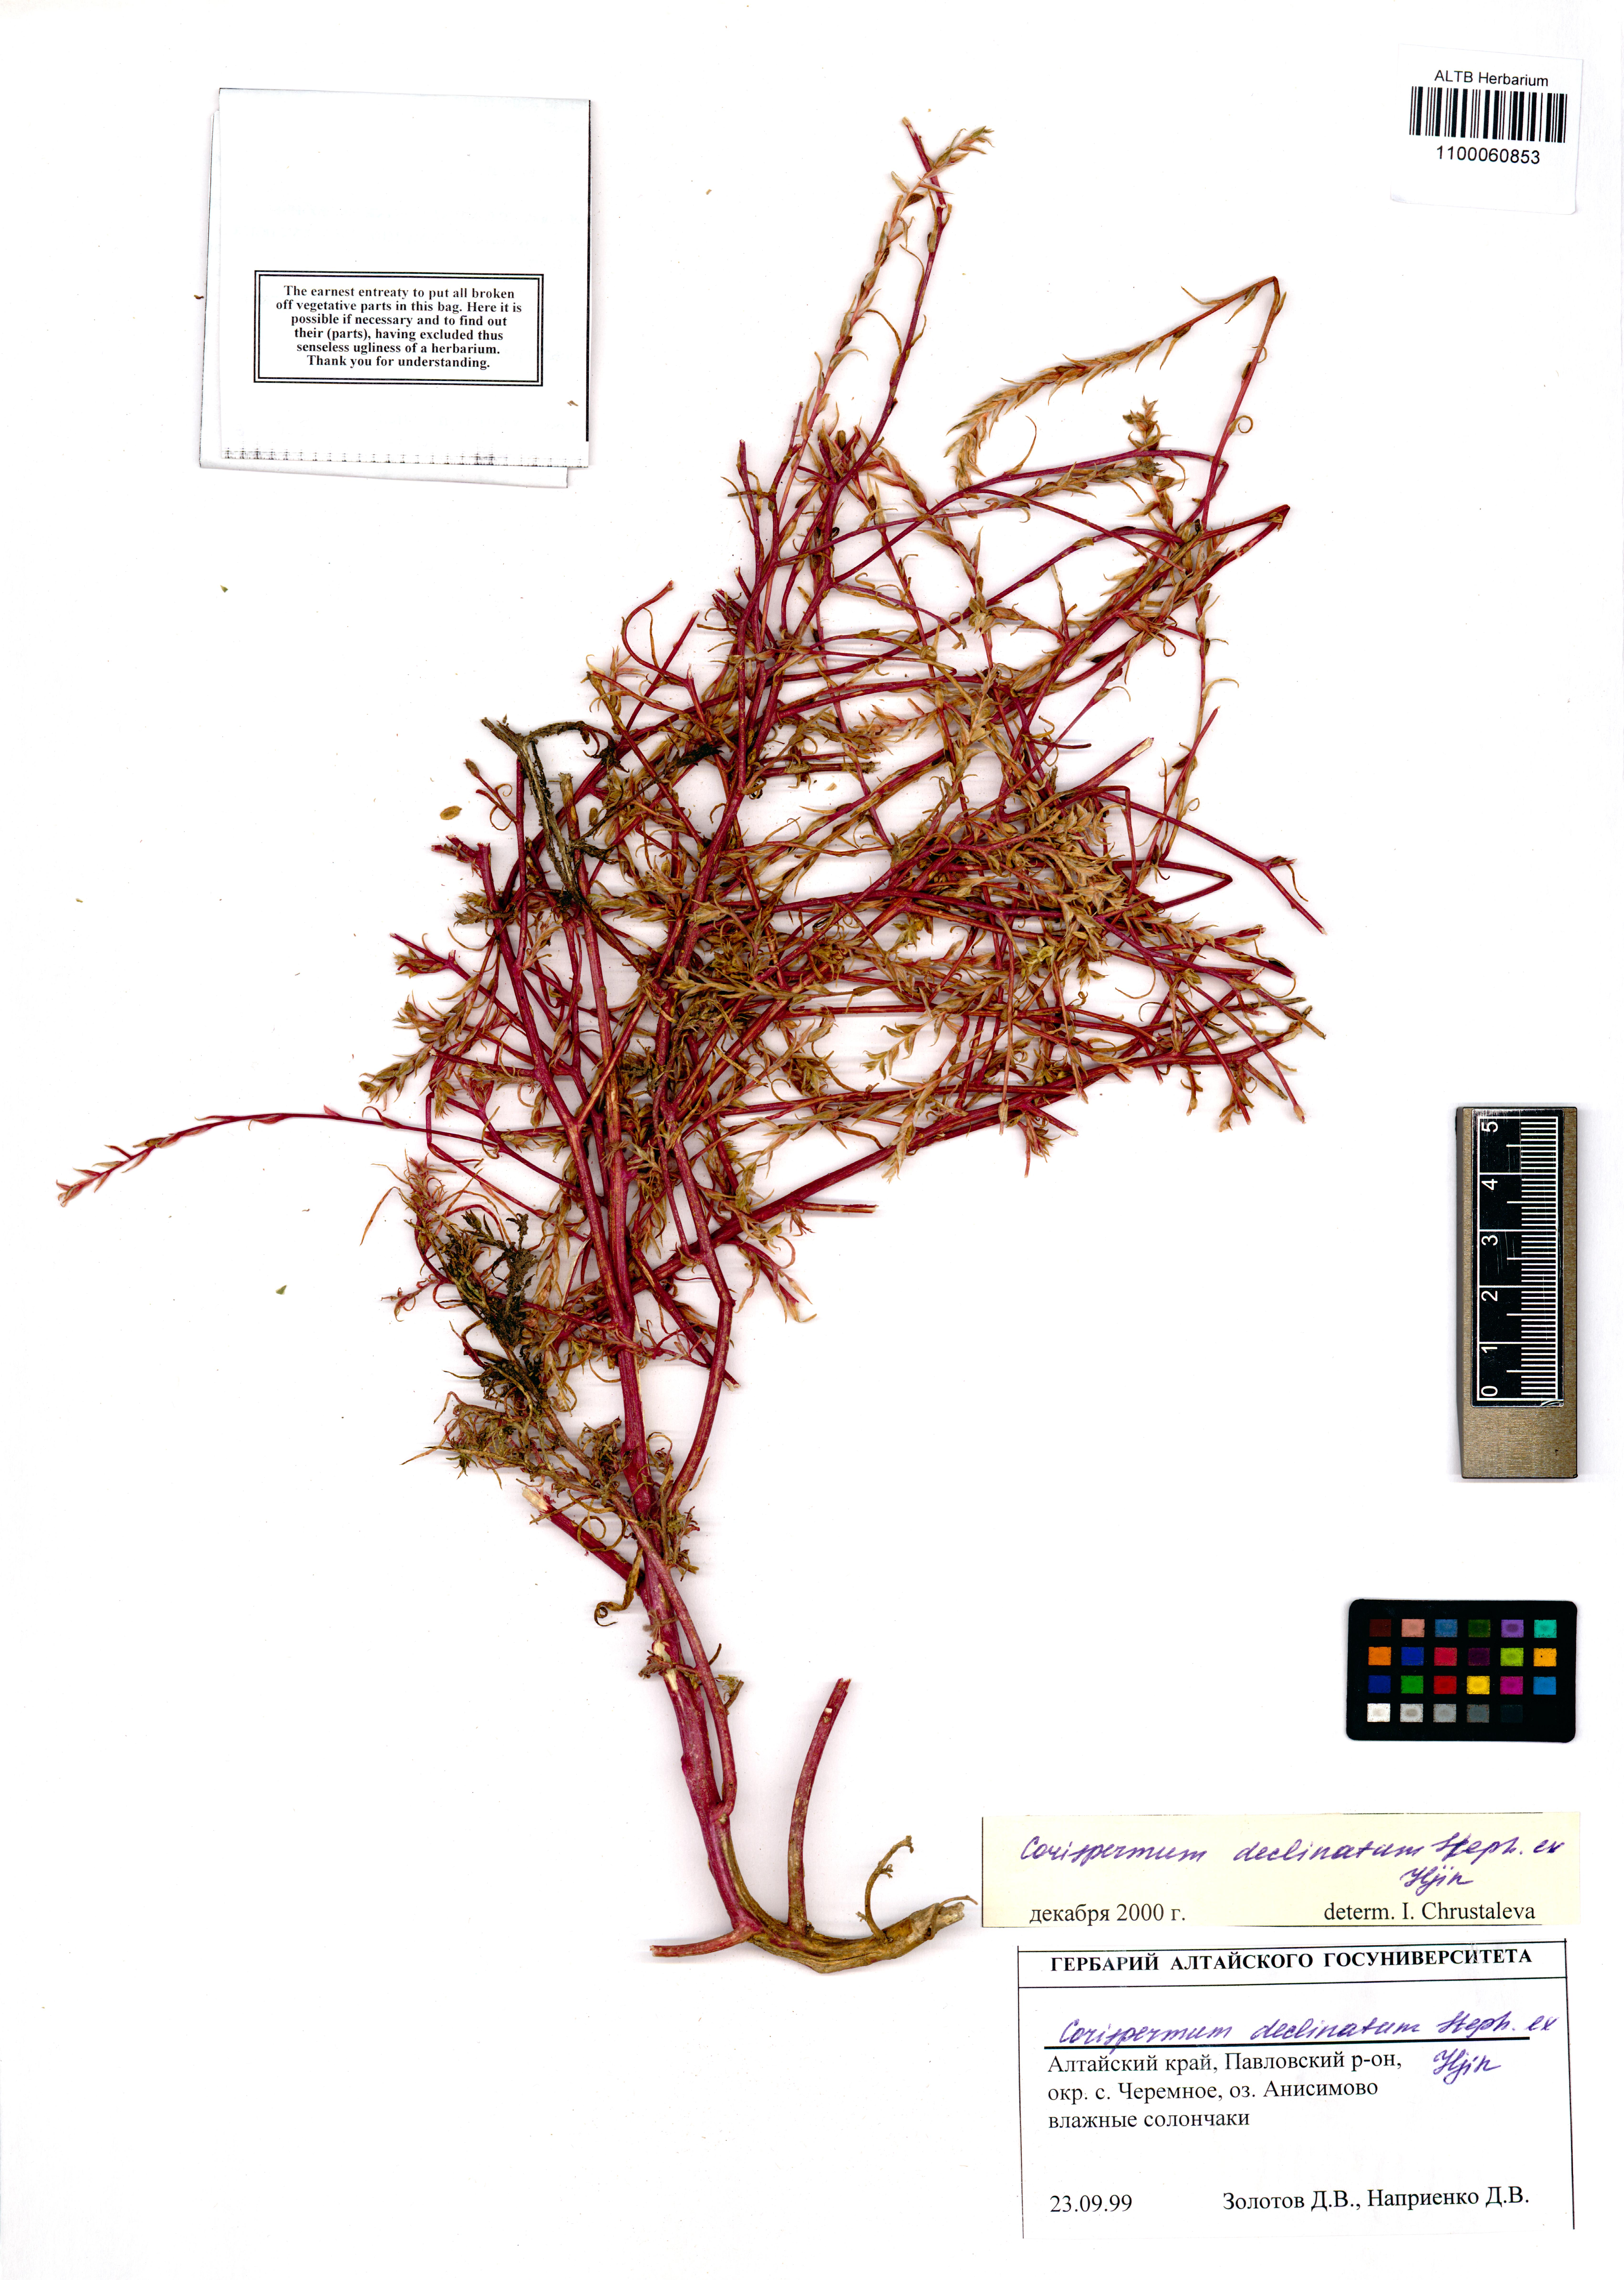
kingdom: Plantae
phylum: Tracheophyta
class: Magnoliopsida
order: Caryophyllales
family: Amaranthaceae
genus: Corispermum
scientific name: Corispermum declinatum
